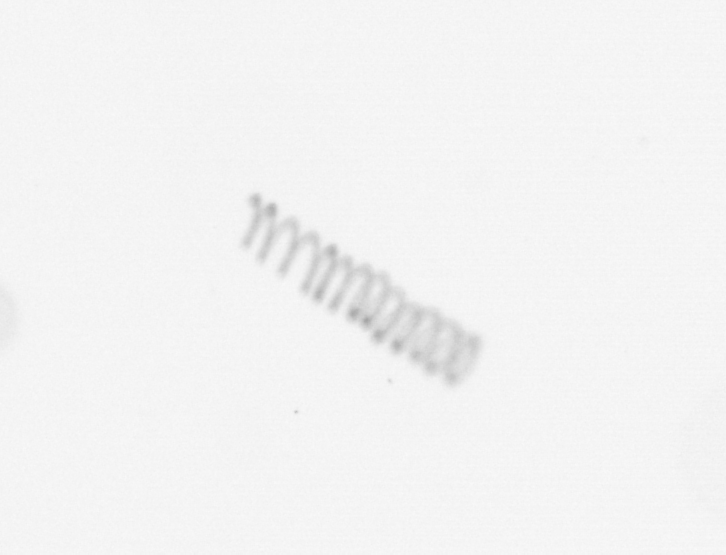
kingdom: Chromista
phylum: Ochrophyta
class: Bacillariophyceae
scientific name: Bacillariophyceae
